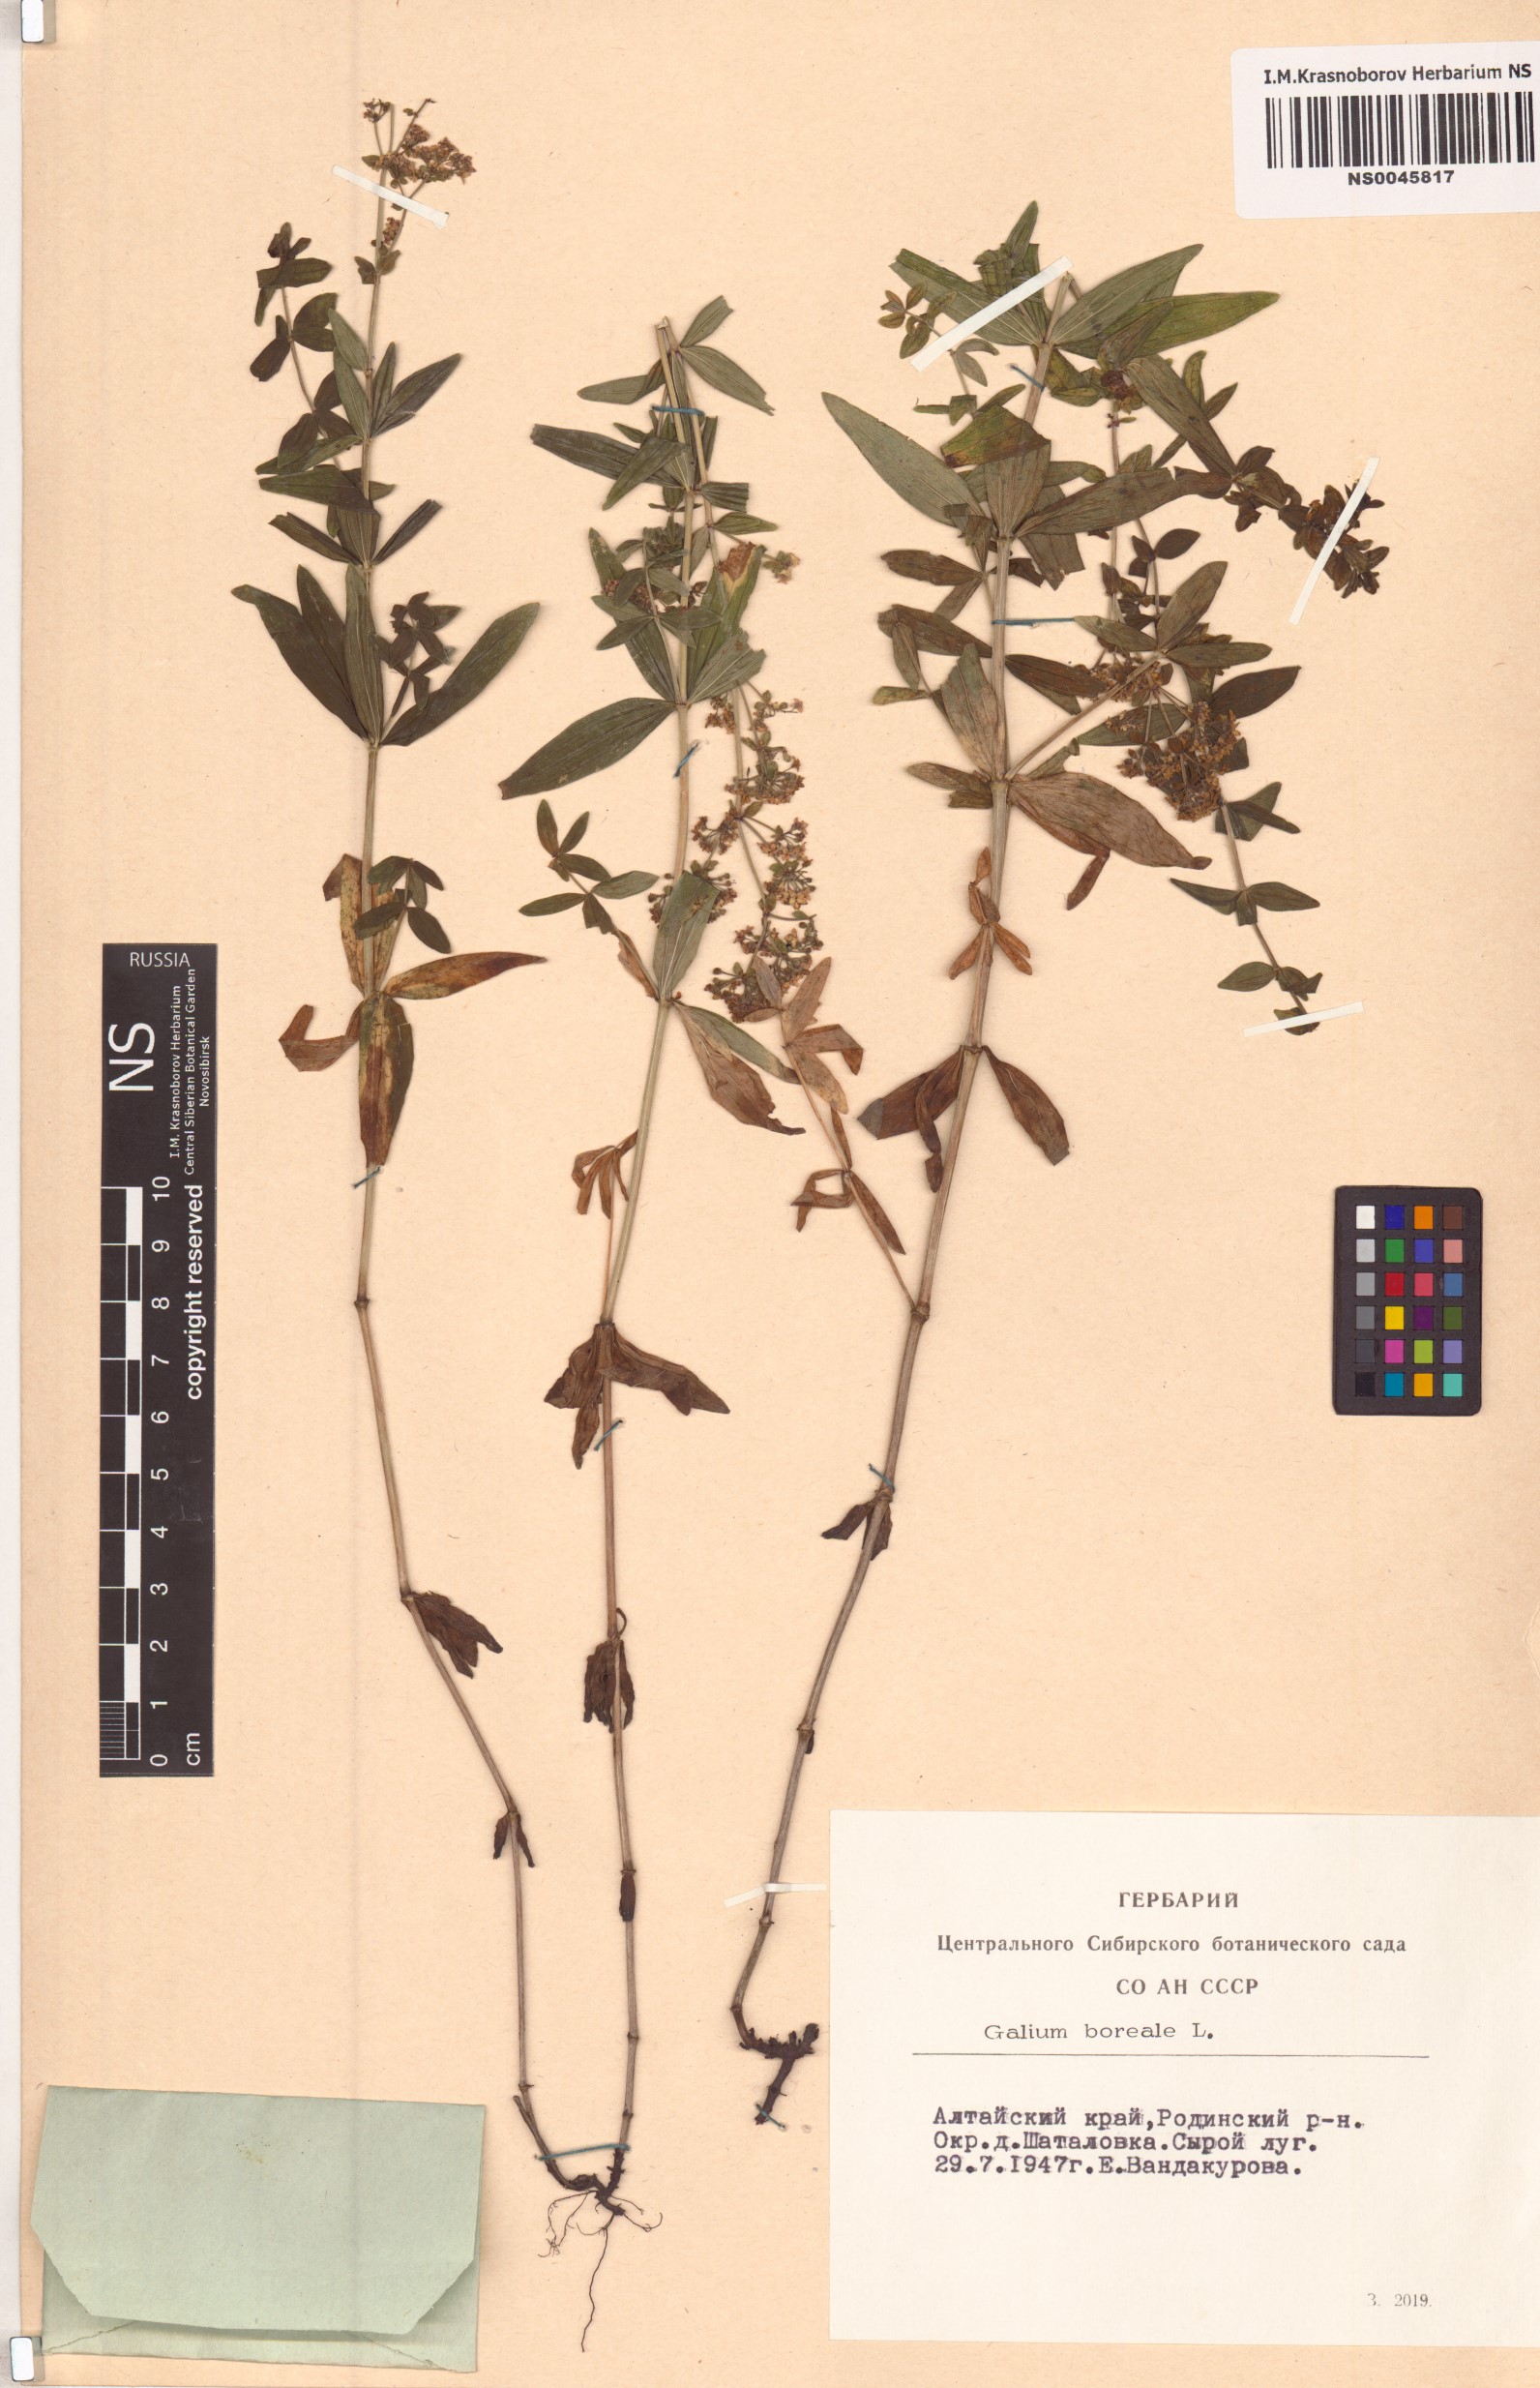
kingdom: Plantae
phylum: Tracheophyta
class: Magnoliopsida
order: Gentianales
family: Rubiaceae
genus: Galium
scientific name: Galium boreale
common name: Northern bedstraw
